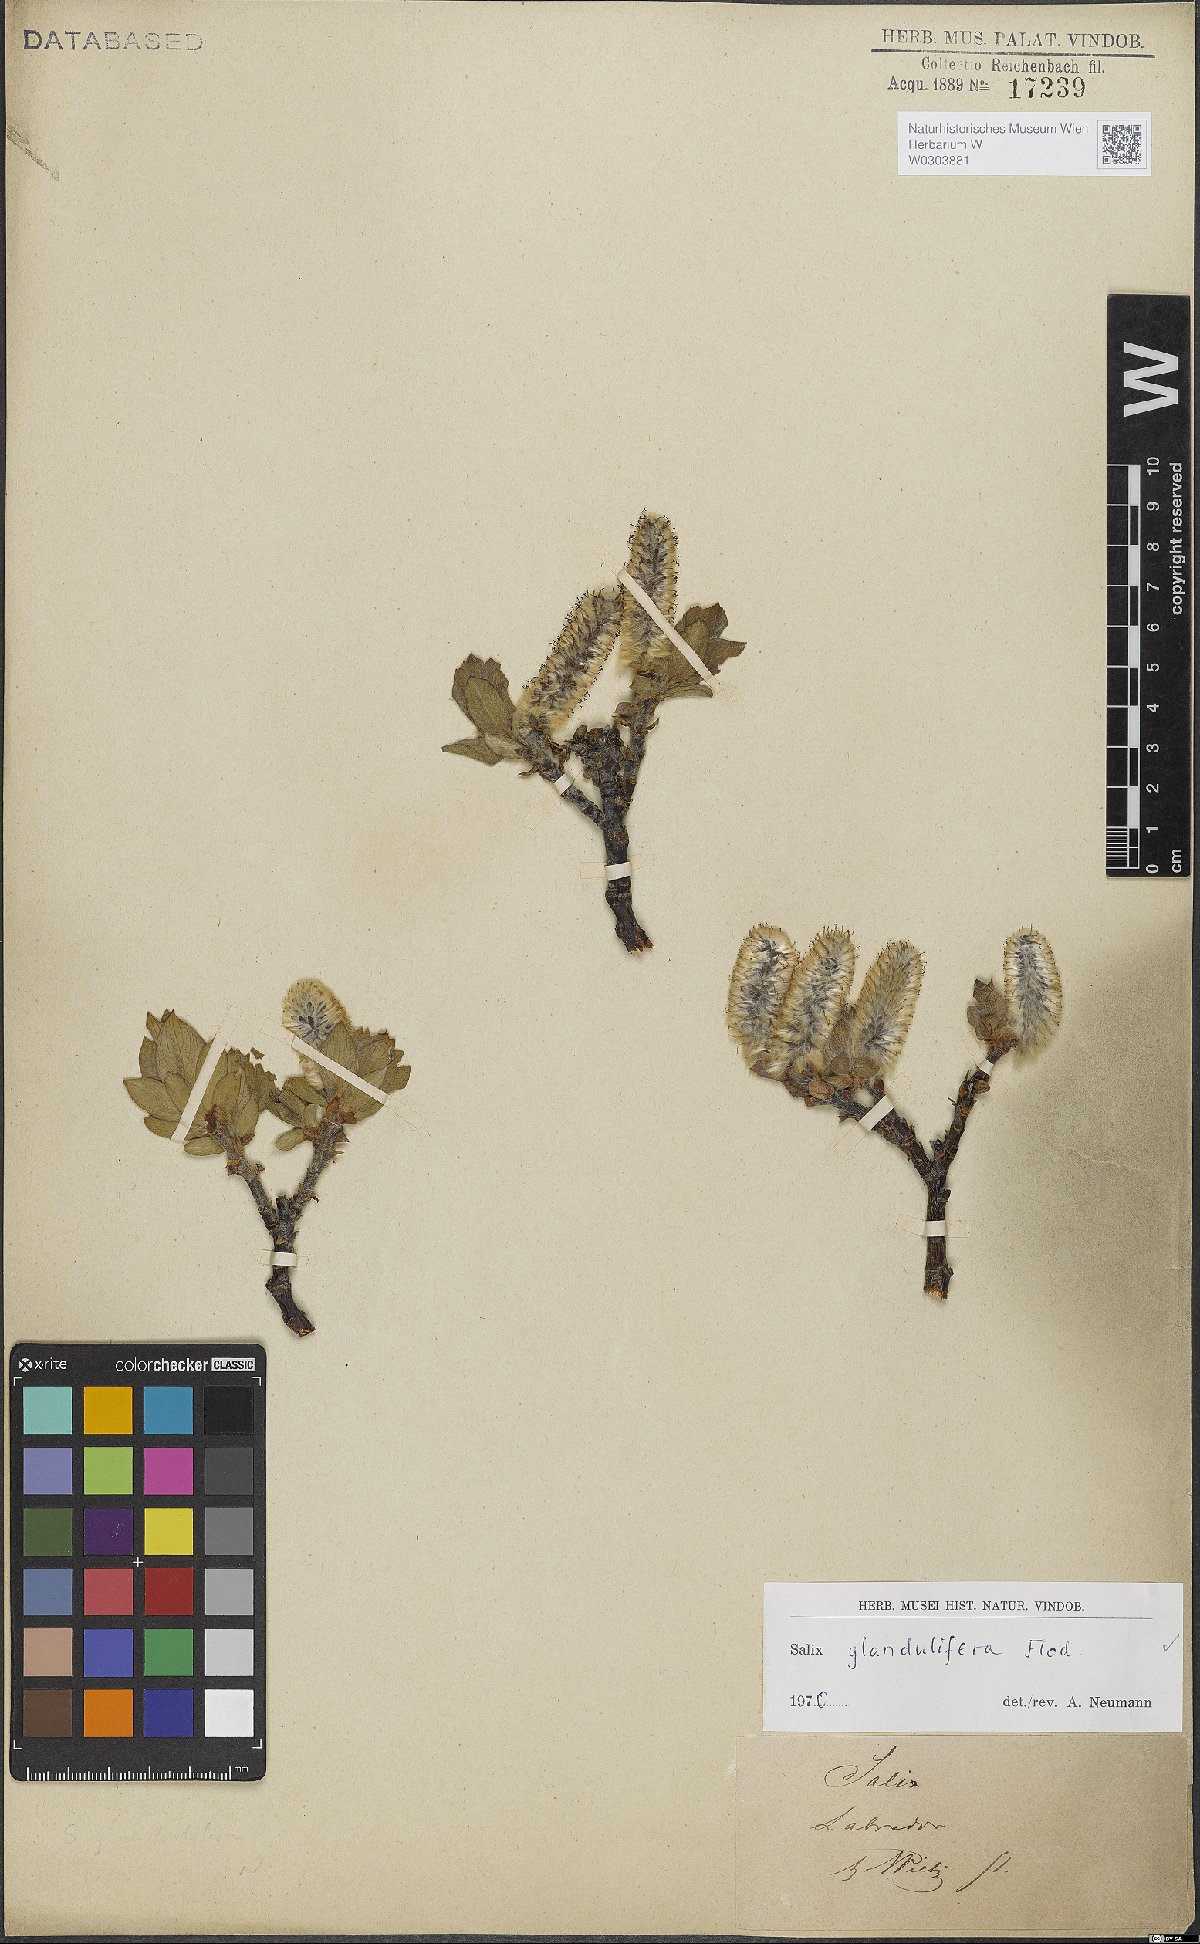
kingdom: Plantae
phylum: Tracheophyta
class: Magnoliopsida
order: Malpighiales
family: Salicaceae
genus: Salix
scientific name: Salix lanata
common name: Woolly willow
